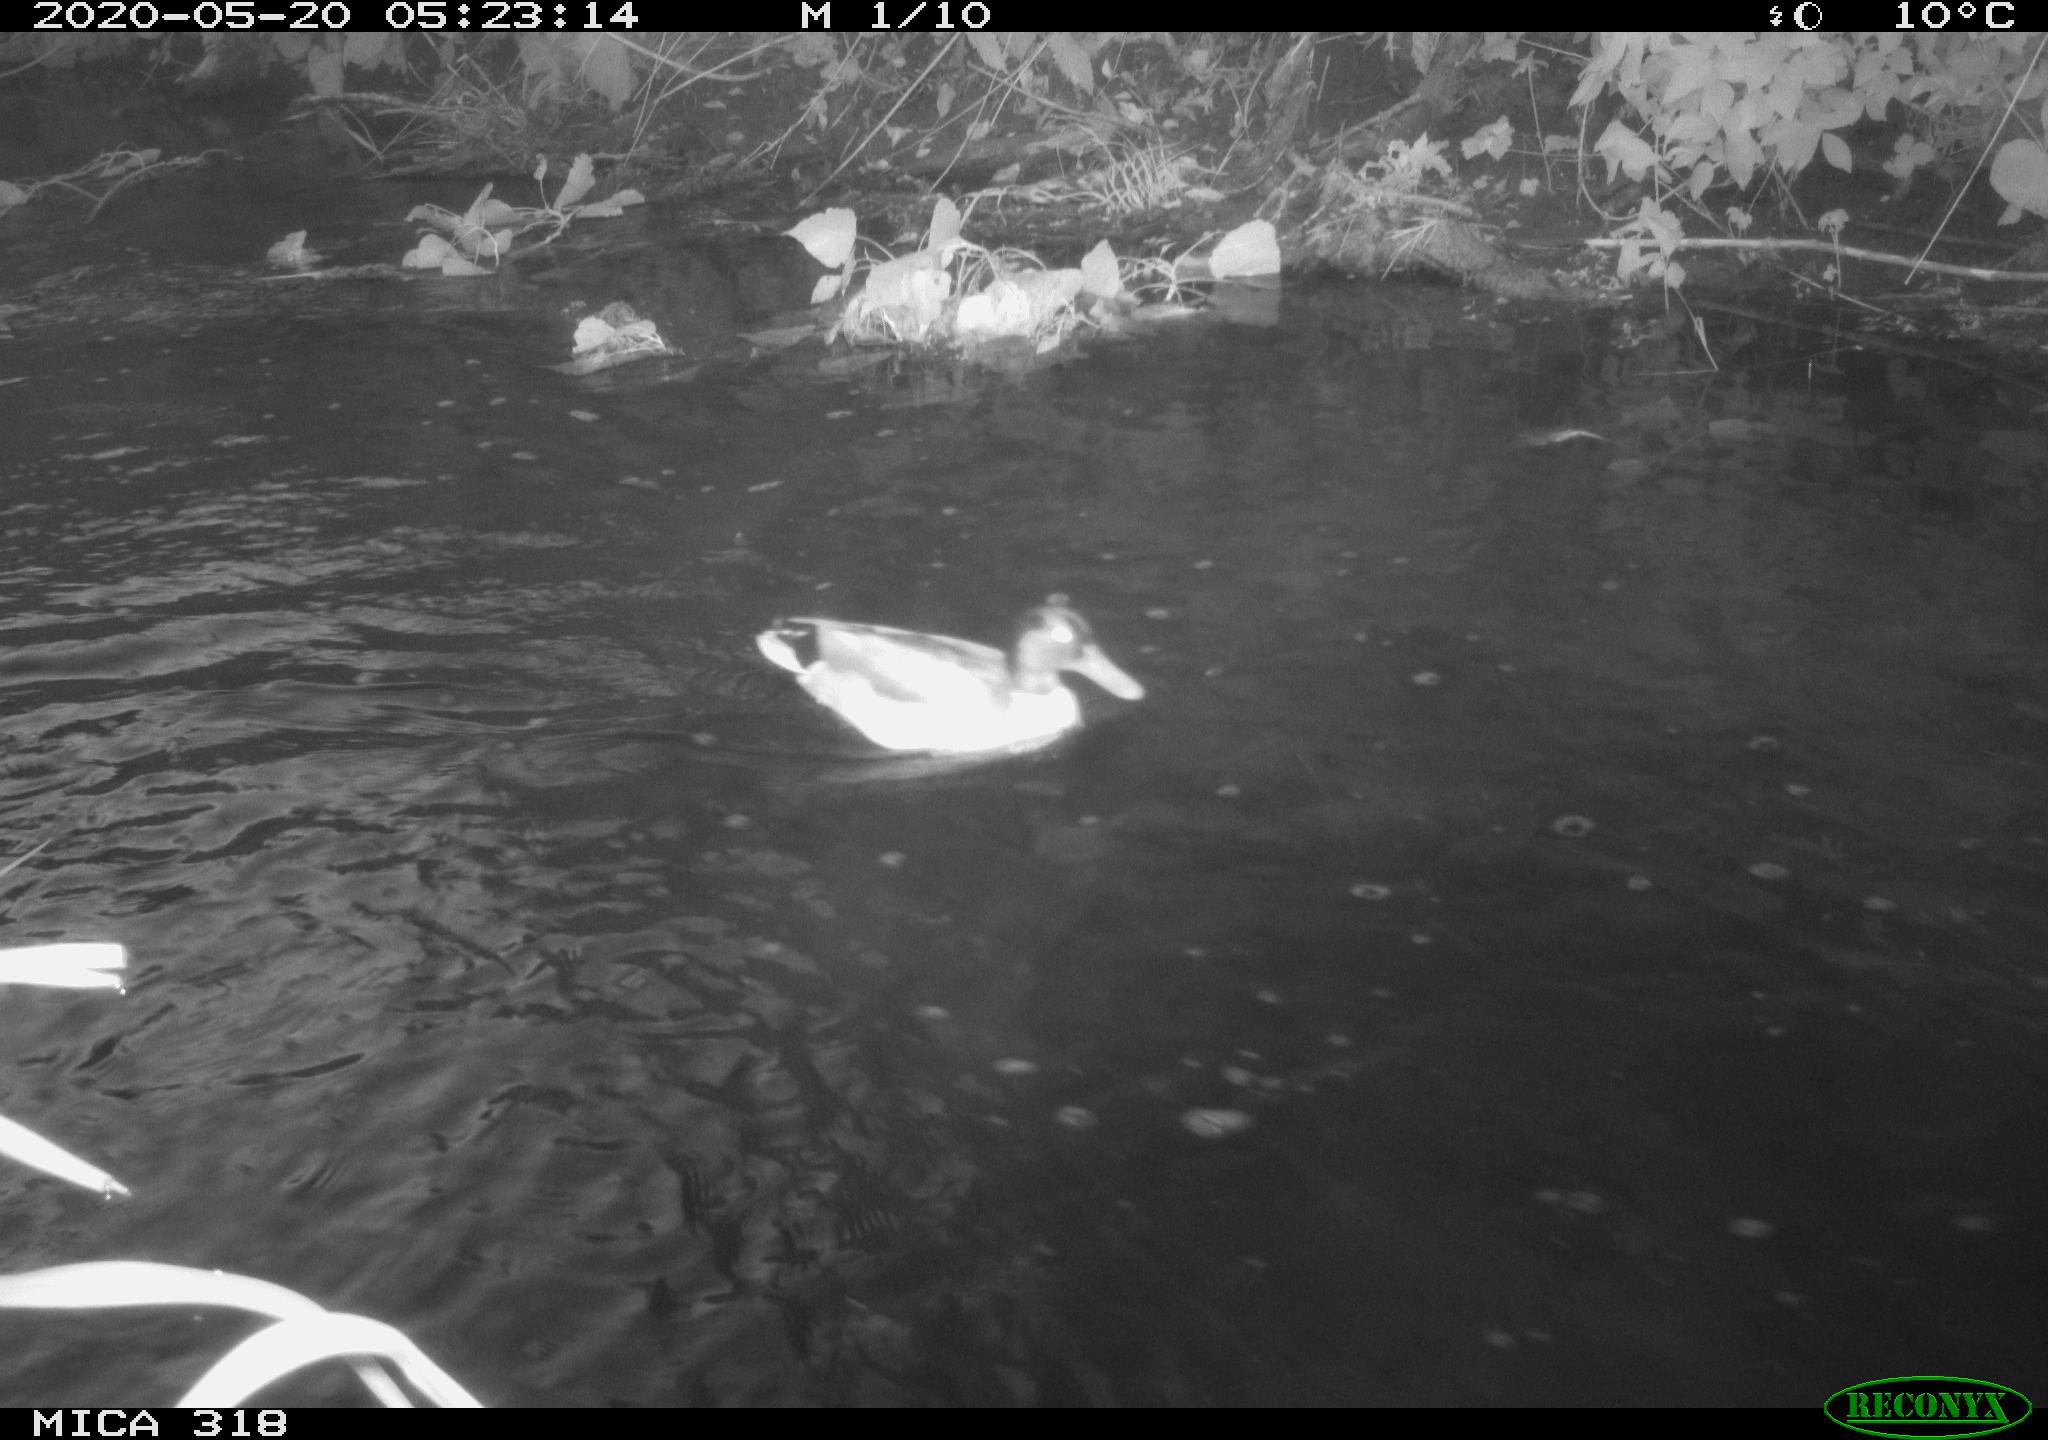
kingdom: Animalia
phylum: Chordata
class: Aves
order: Anseriformes
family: Anatidae
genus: Anas
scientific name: Anas platyrhynchos
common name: Mallard
